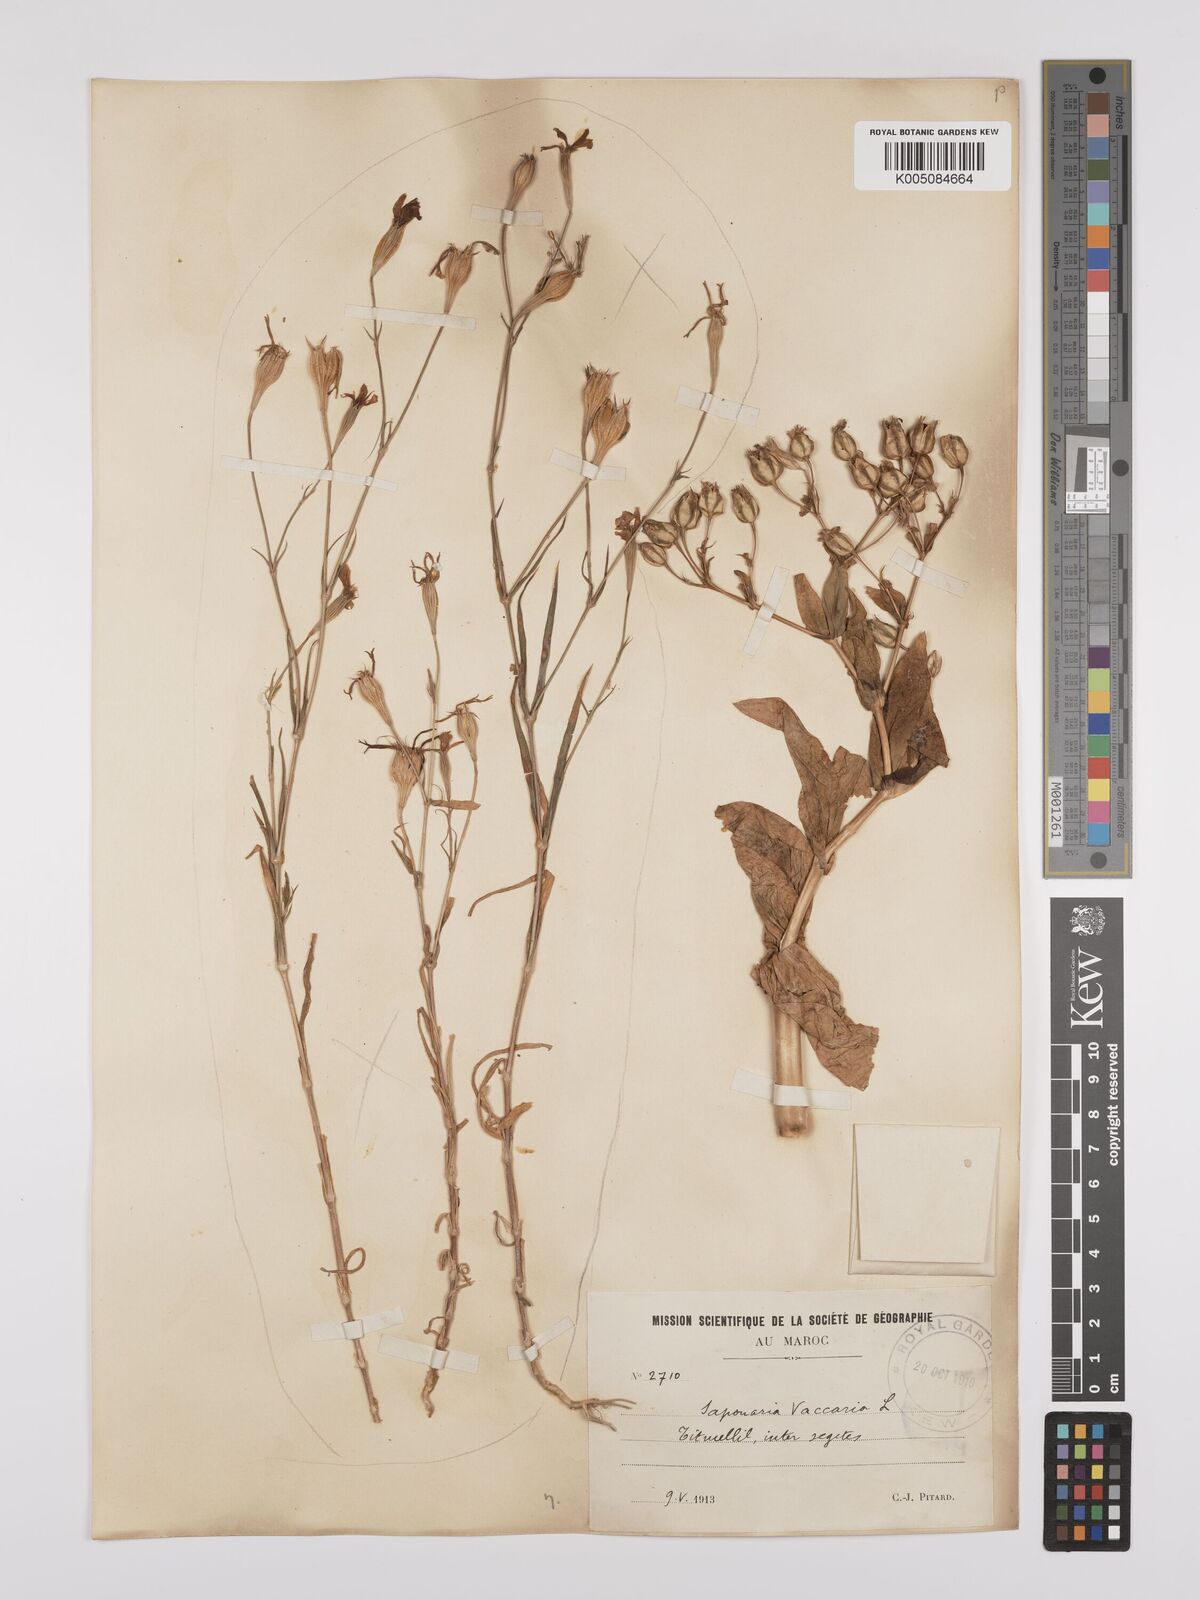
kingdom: Plantae
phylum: Tracheophyta
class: Magnoliopsida
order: Caryophyllales
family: Caryophyllaceae
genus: Gypsophila
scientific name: Gypsophila vaccaria
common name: Cow soapwort
